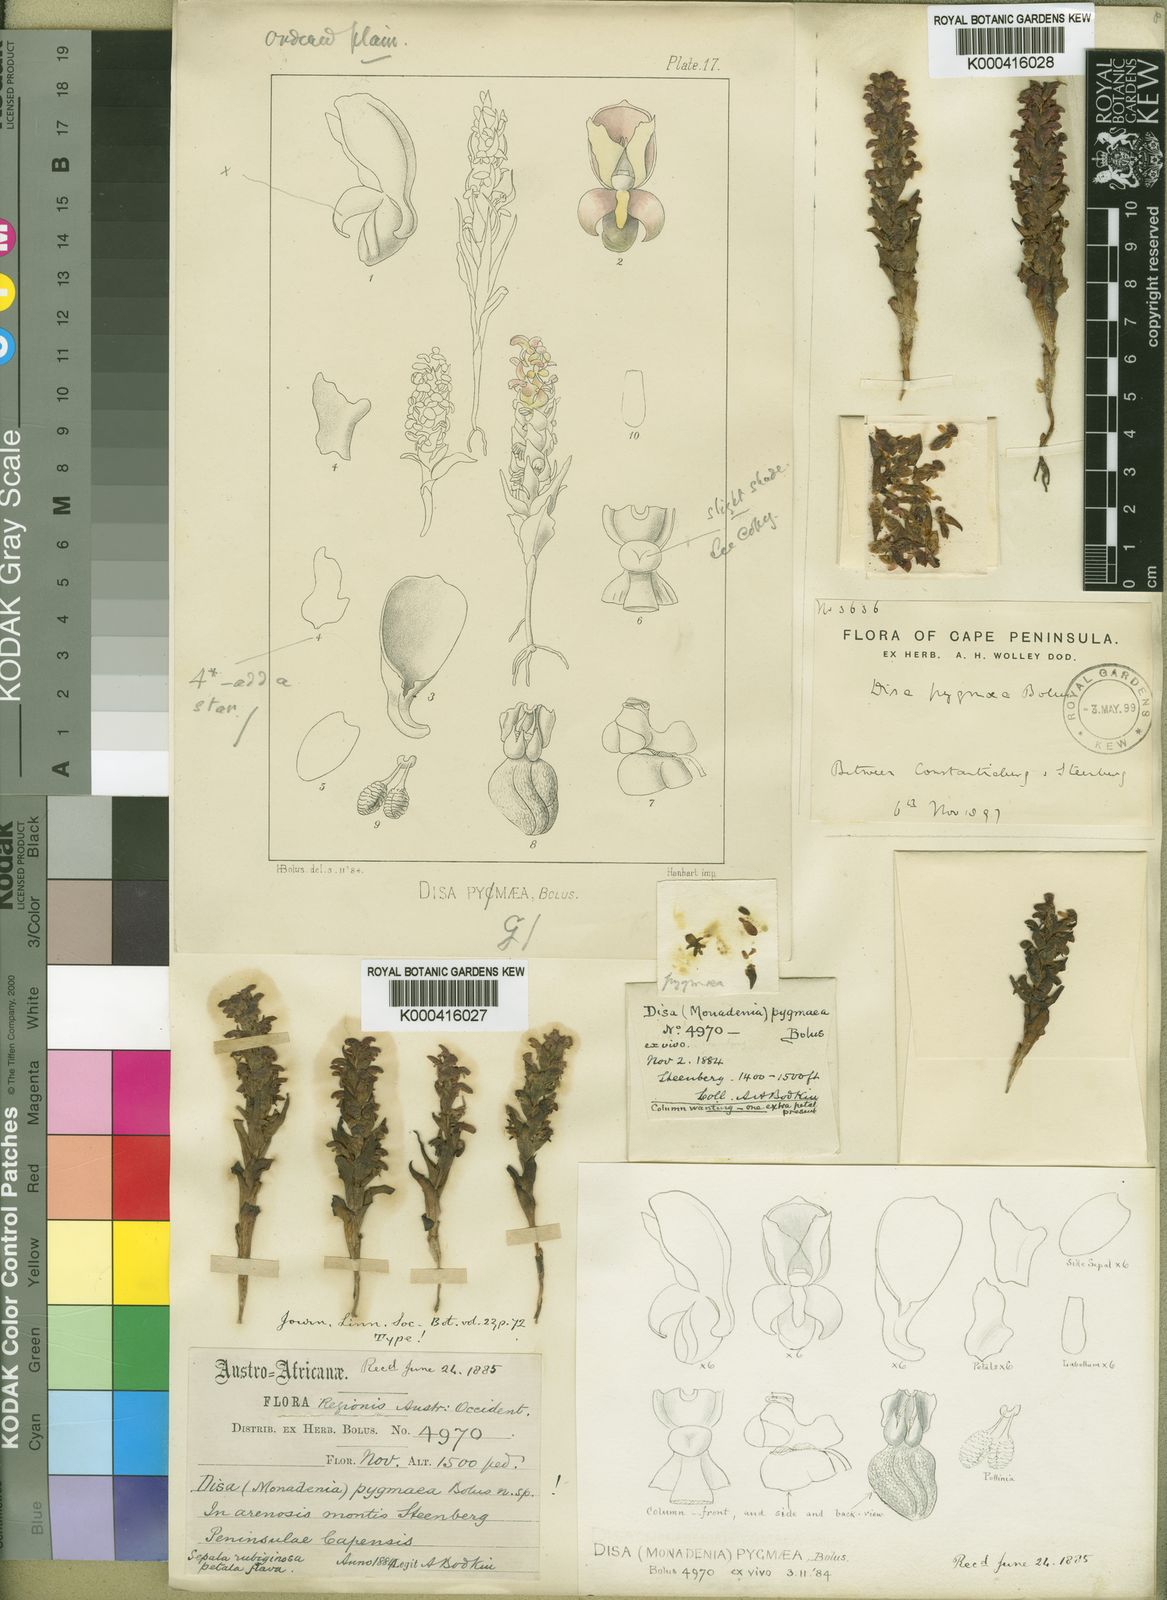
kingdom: Plantae
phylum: Tracheophyta
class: Liliopsida
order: Asparagales
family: Orchidaceae
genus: Disa
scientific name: Disa pygmaea
